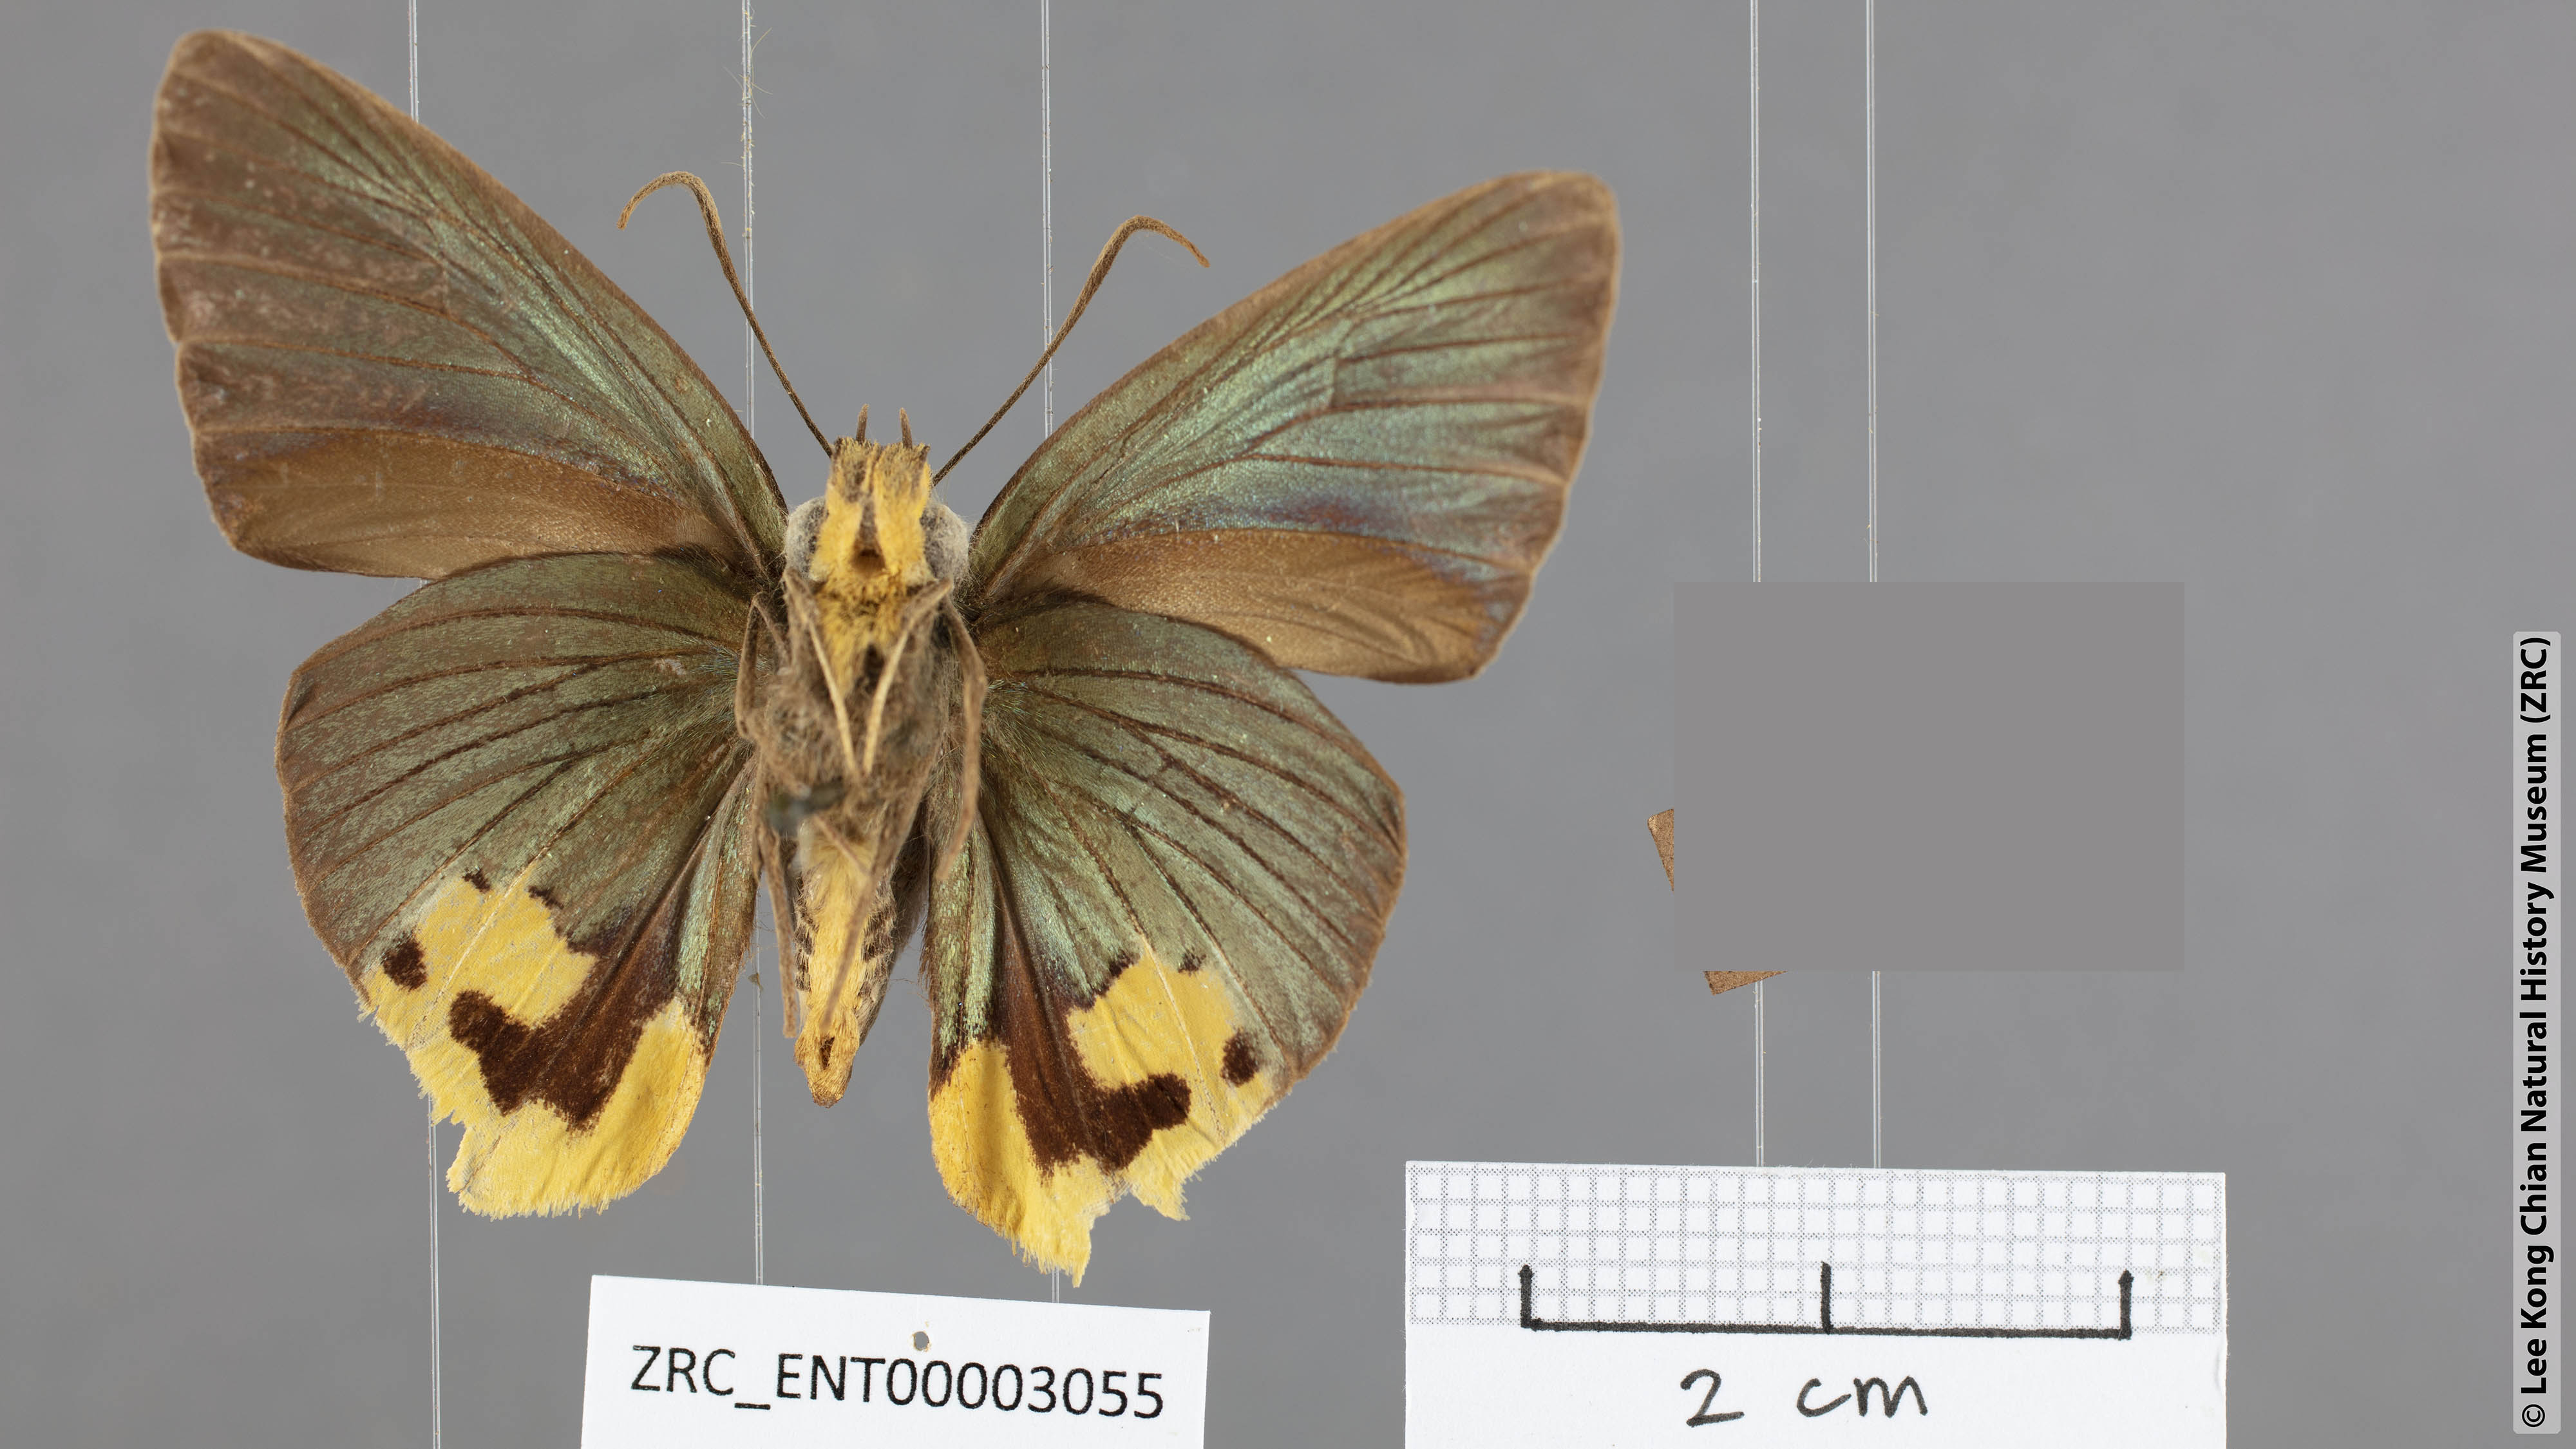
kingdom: Animalia
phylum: Arthropoda
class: Insecta
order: Lepidoptera
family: Hesperiidae
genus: Choaspes
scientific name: Choaspes plateni
